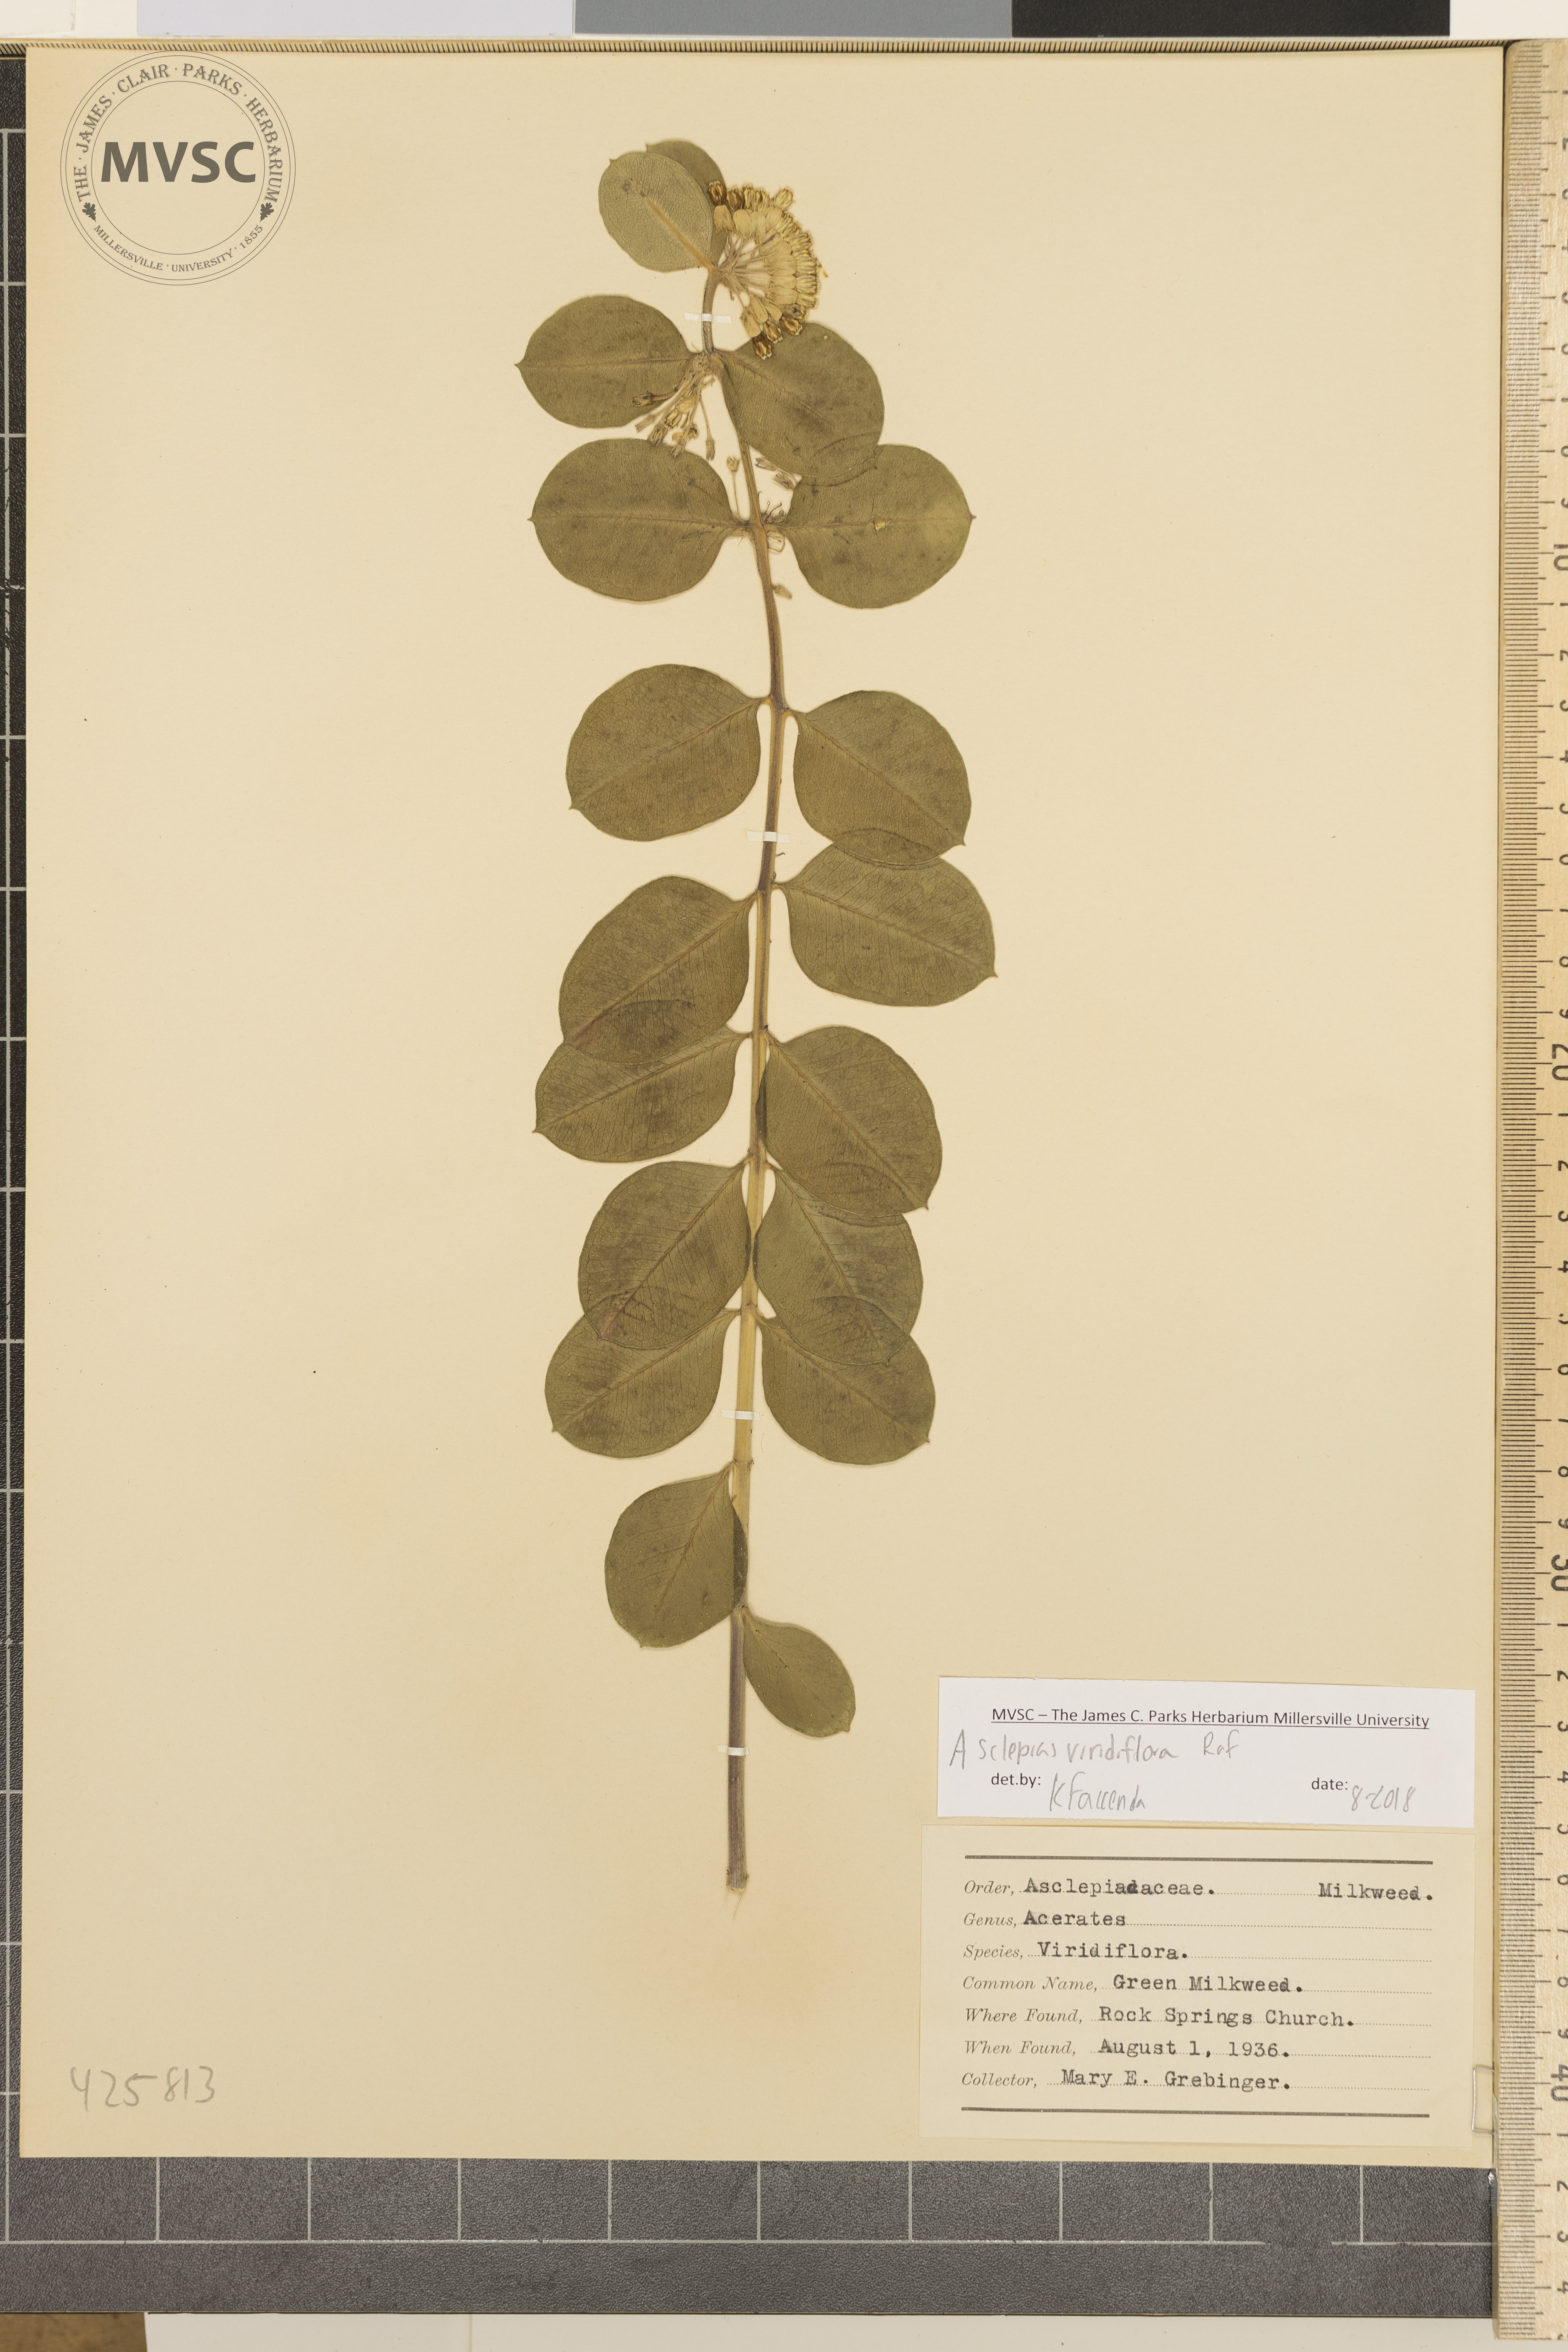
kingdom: Plantae
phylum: Tracheophyta
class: Magnoliopsida
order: Gentianales
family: Apocynaceae
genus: Asclepias
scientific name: Asclepias viridiflora
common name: Green Milkweed
